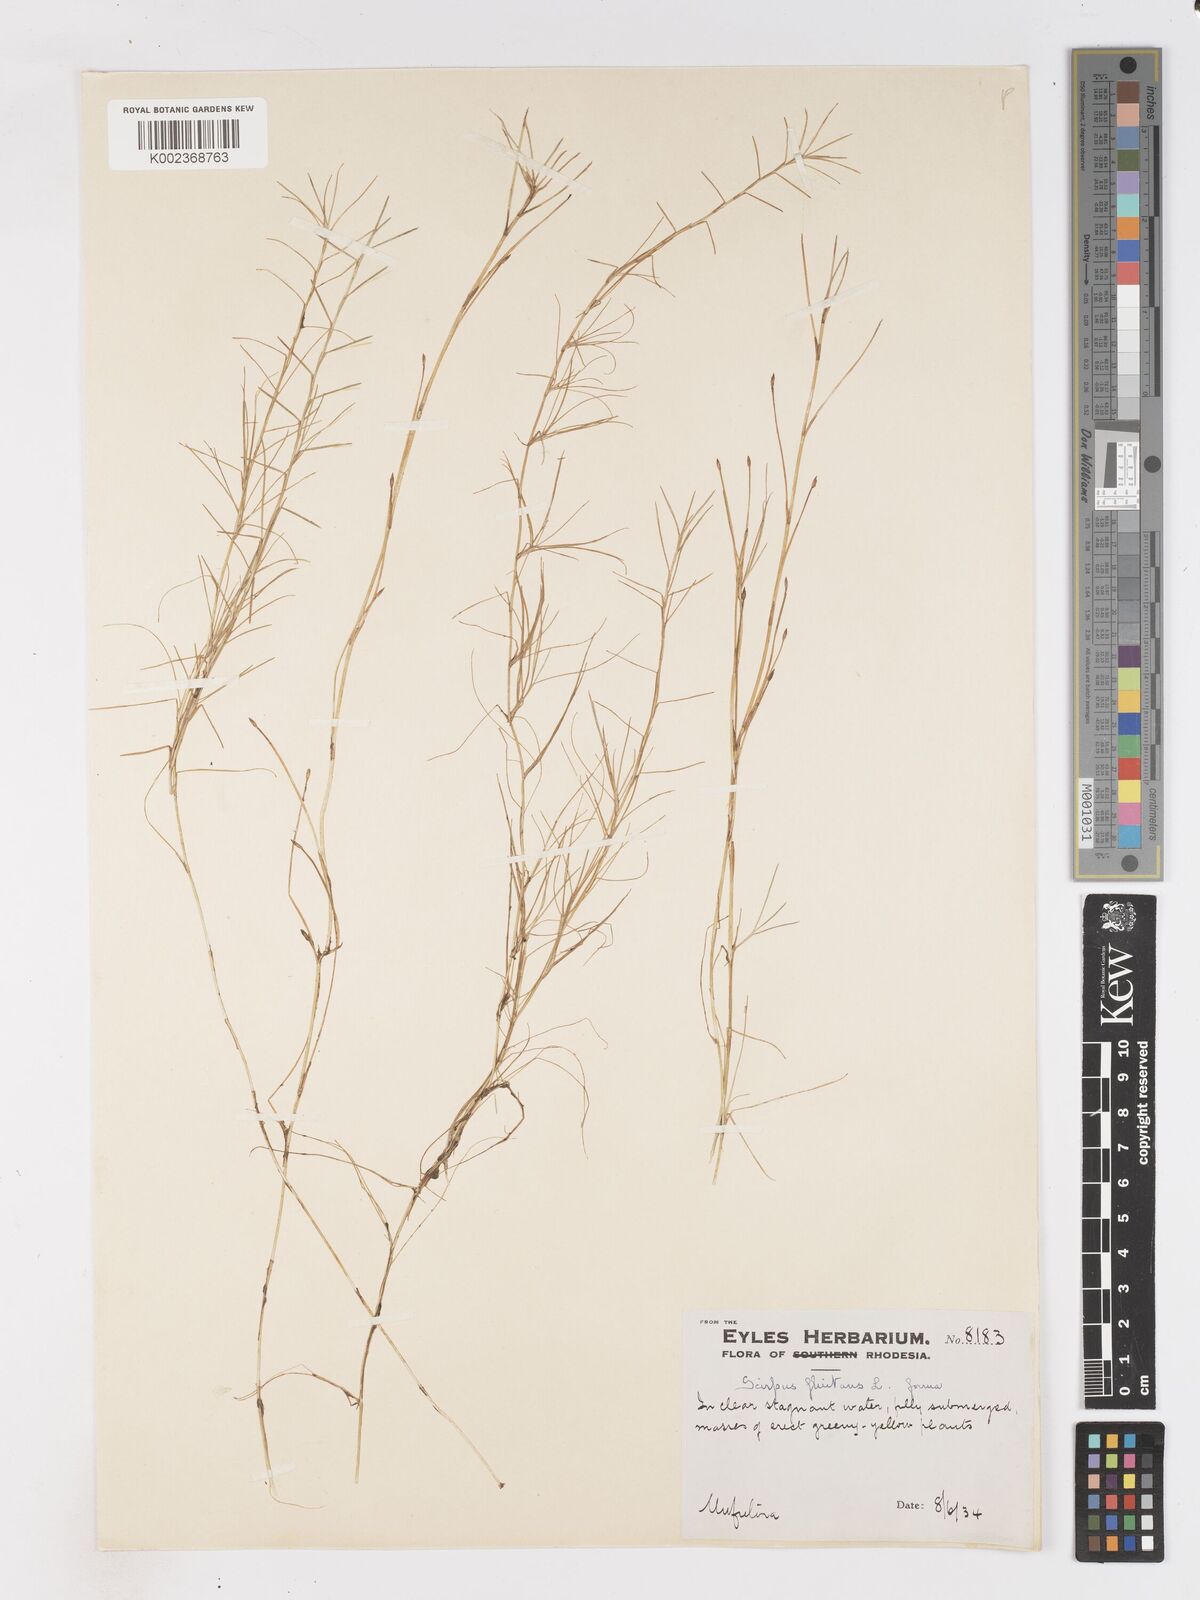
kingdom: Plantae
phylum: Tracheophyta
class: Liliopsida
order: Poales
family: Cyperaceae
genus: Isolepis
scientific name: Isolepis fluitans
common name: Floating club-rush
